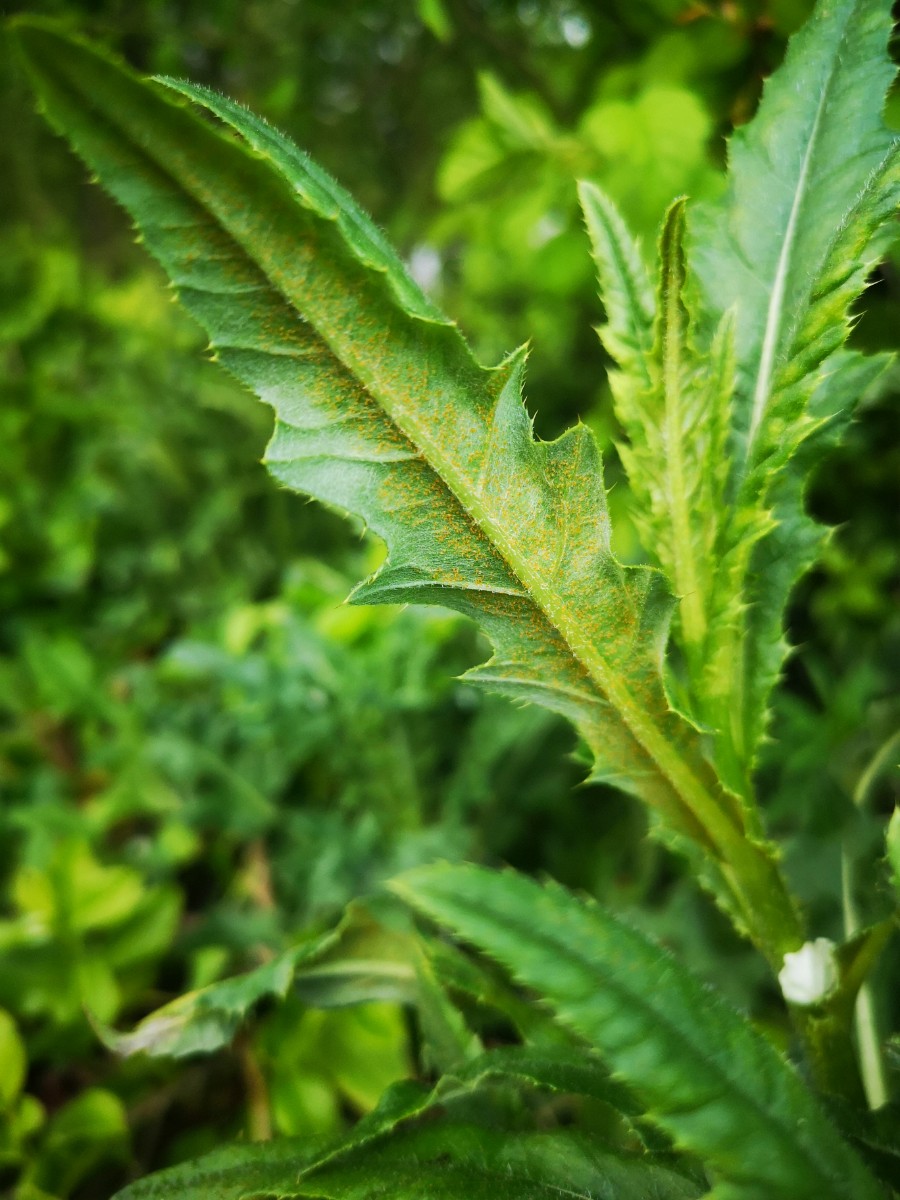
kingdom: Fungi
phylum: Basidiomycota
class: Pucciniomycetes
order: Pucciniales
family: Pucciniaceae
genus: Puccinia
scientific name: Puccinia suaveolens
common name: tidsel-tvecellerust
